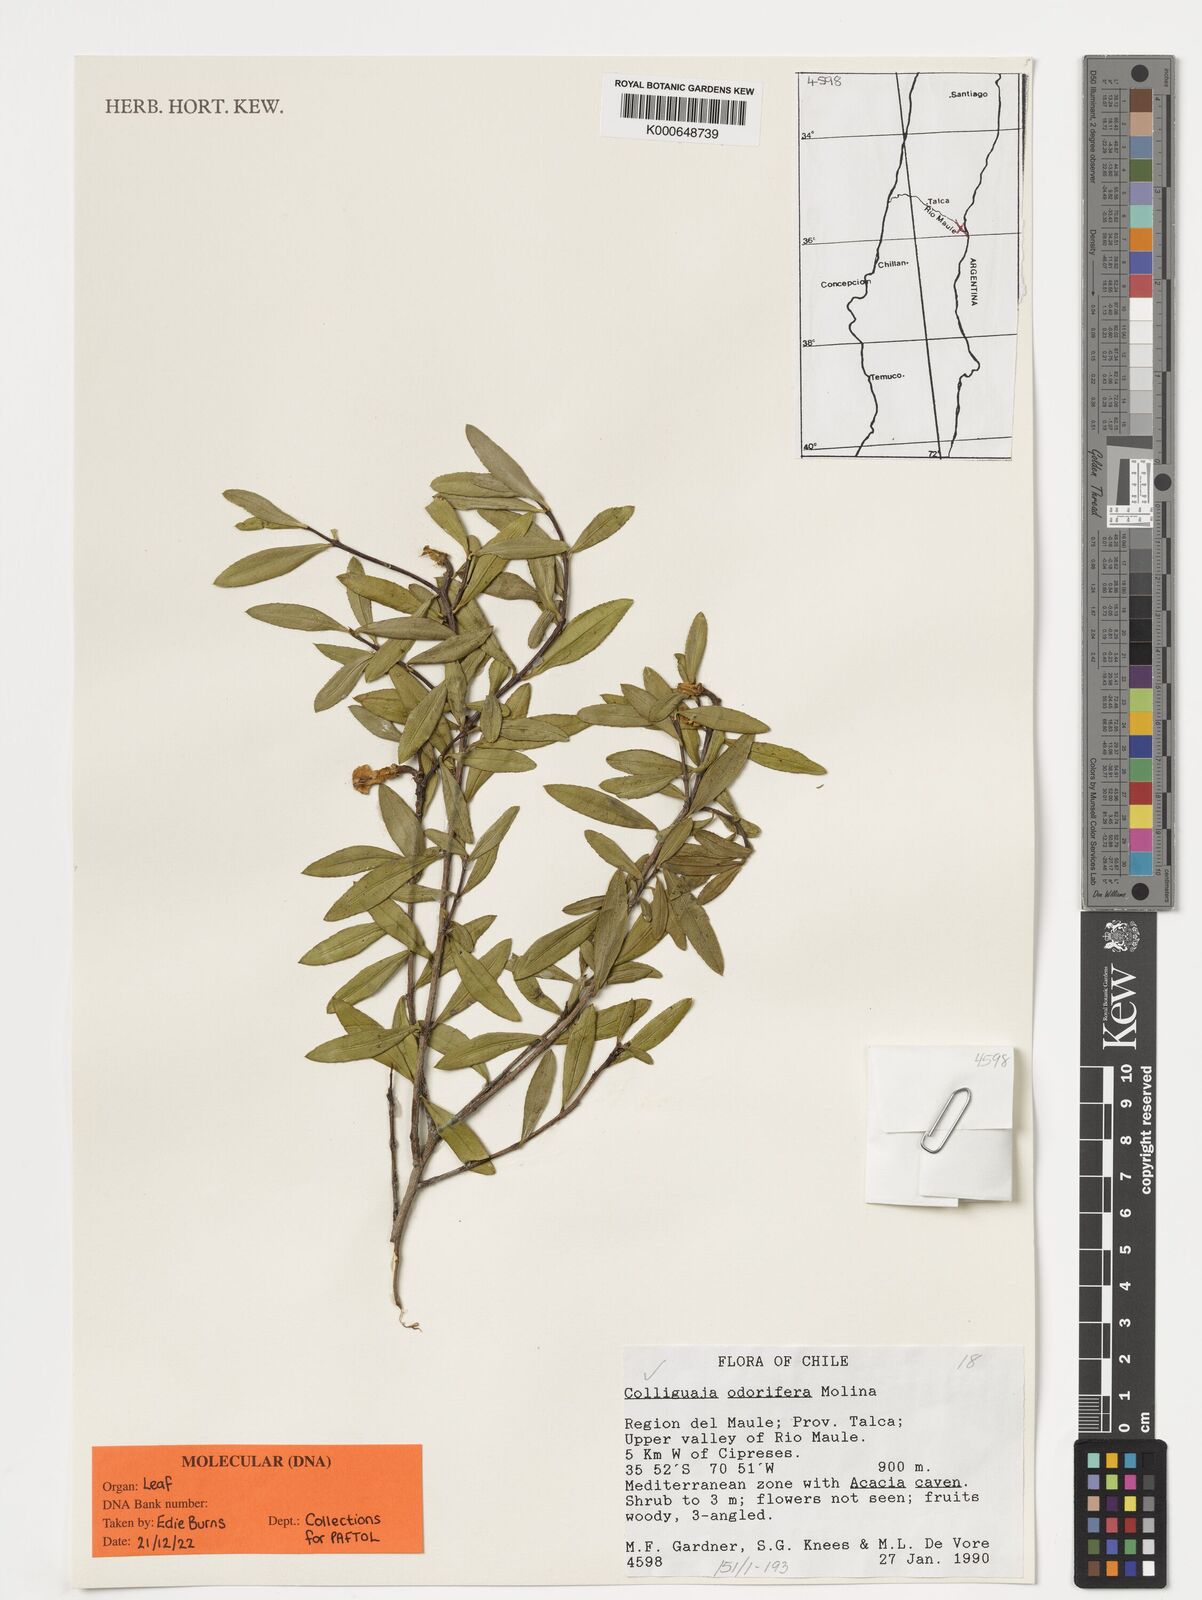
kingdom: Plantae
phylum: Tracheophyta
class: Magnoliopsida
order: Malpighiales
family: Euphorbiaceae
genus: Colliguaja
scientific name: Colliguaja odorifera
